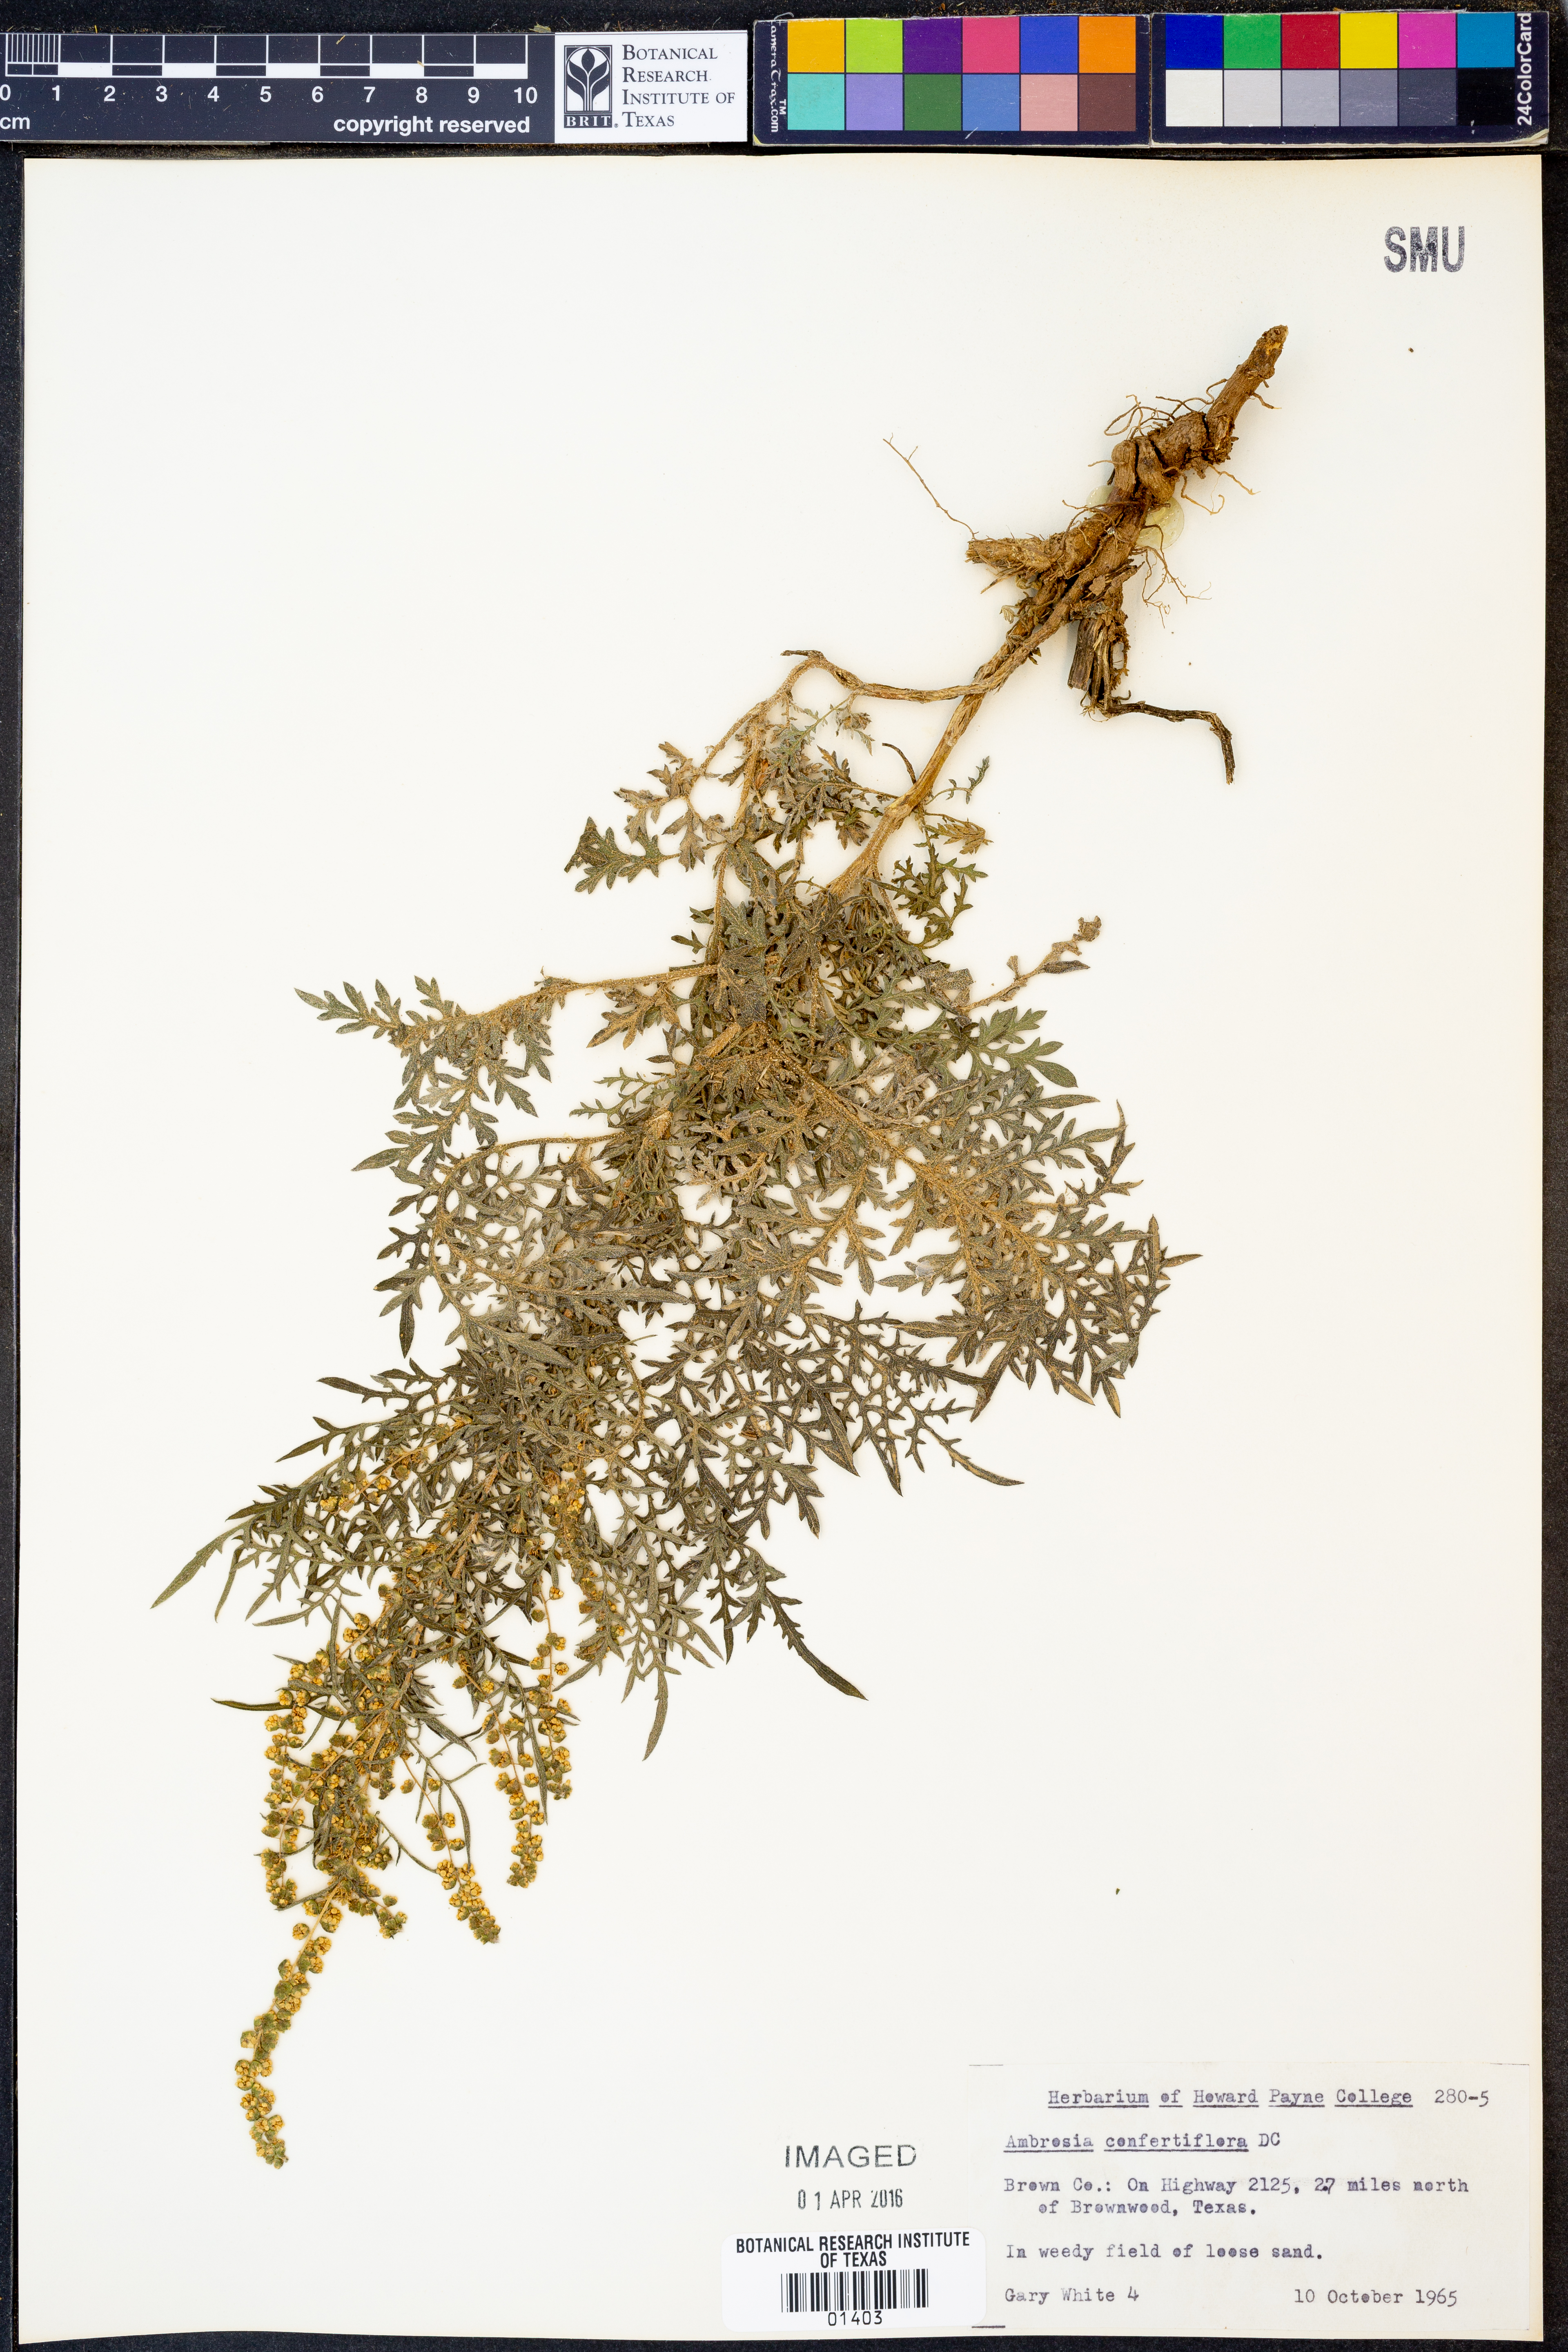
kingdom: Plantae
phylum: Tracheophyta
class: Magnoliopsida
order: Asterales
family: Asteraceae
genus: Ambrosia
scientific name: Ambrosia confertiflora
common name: Bur ragweed
